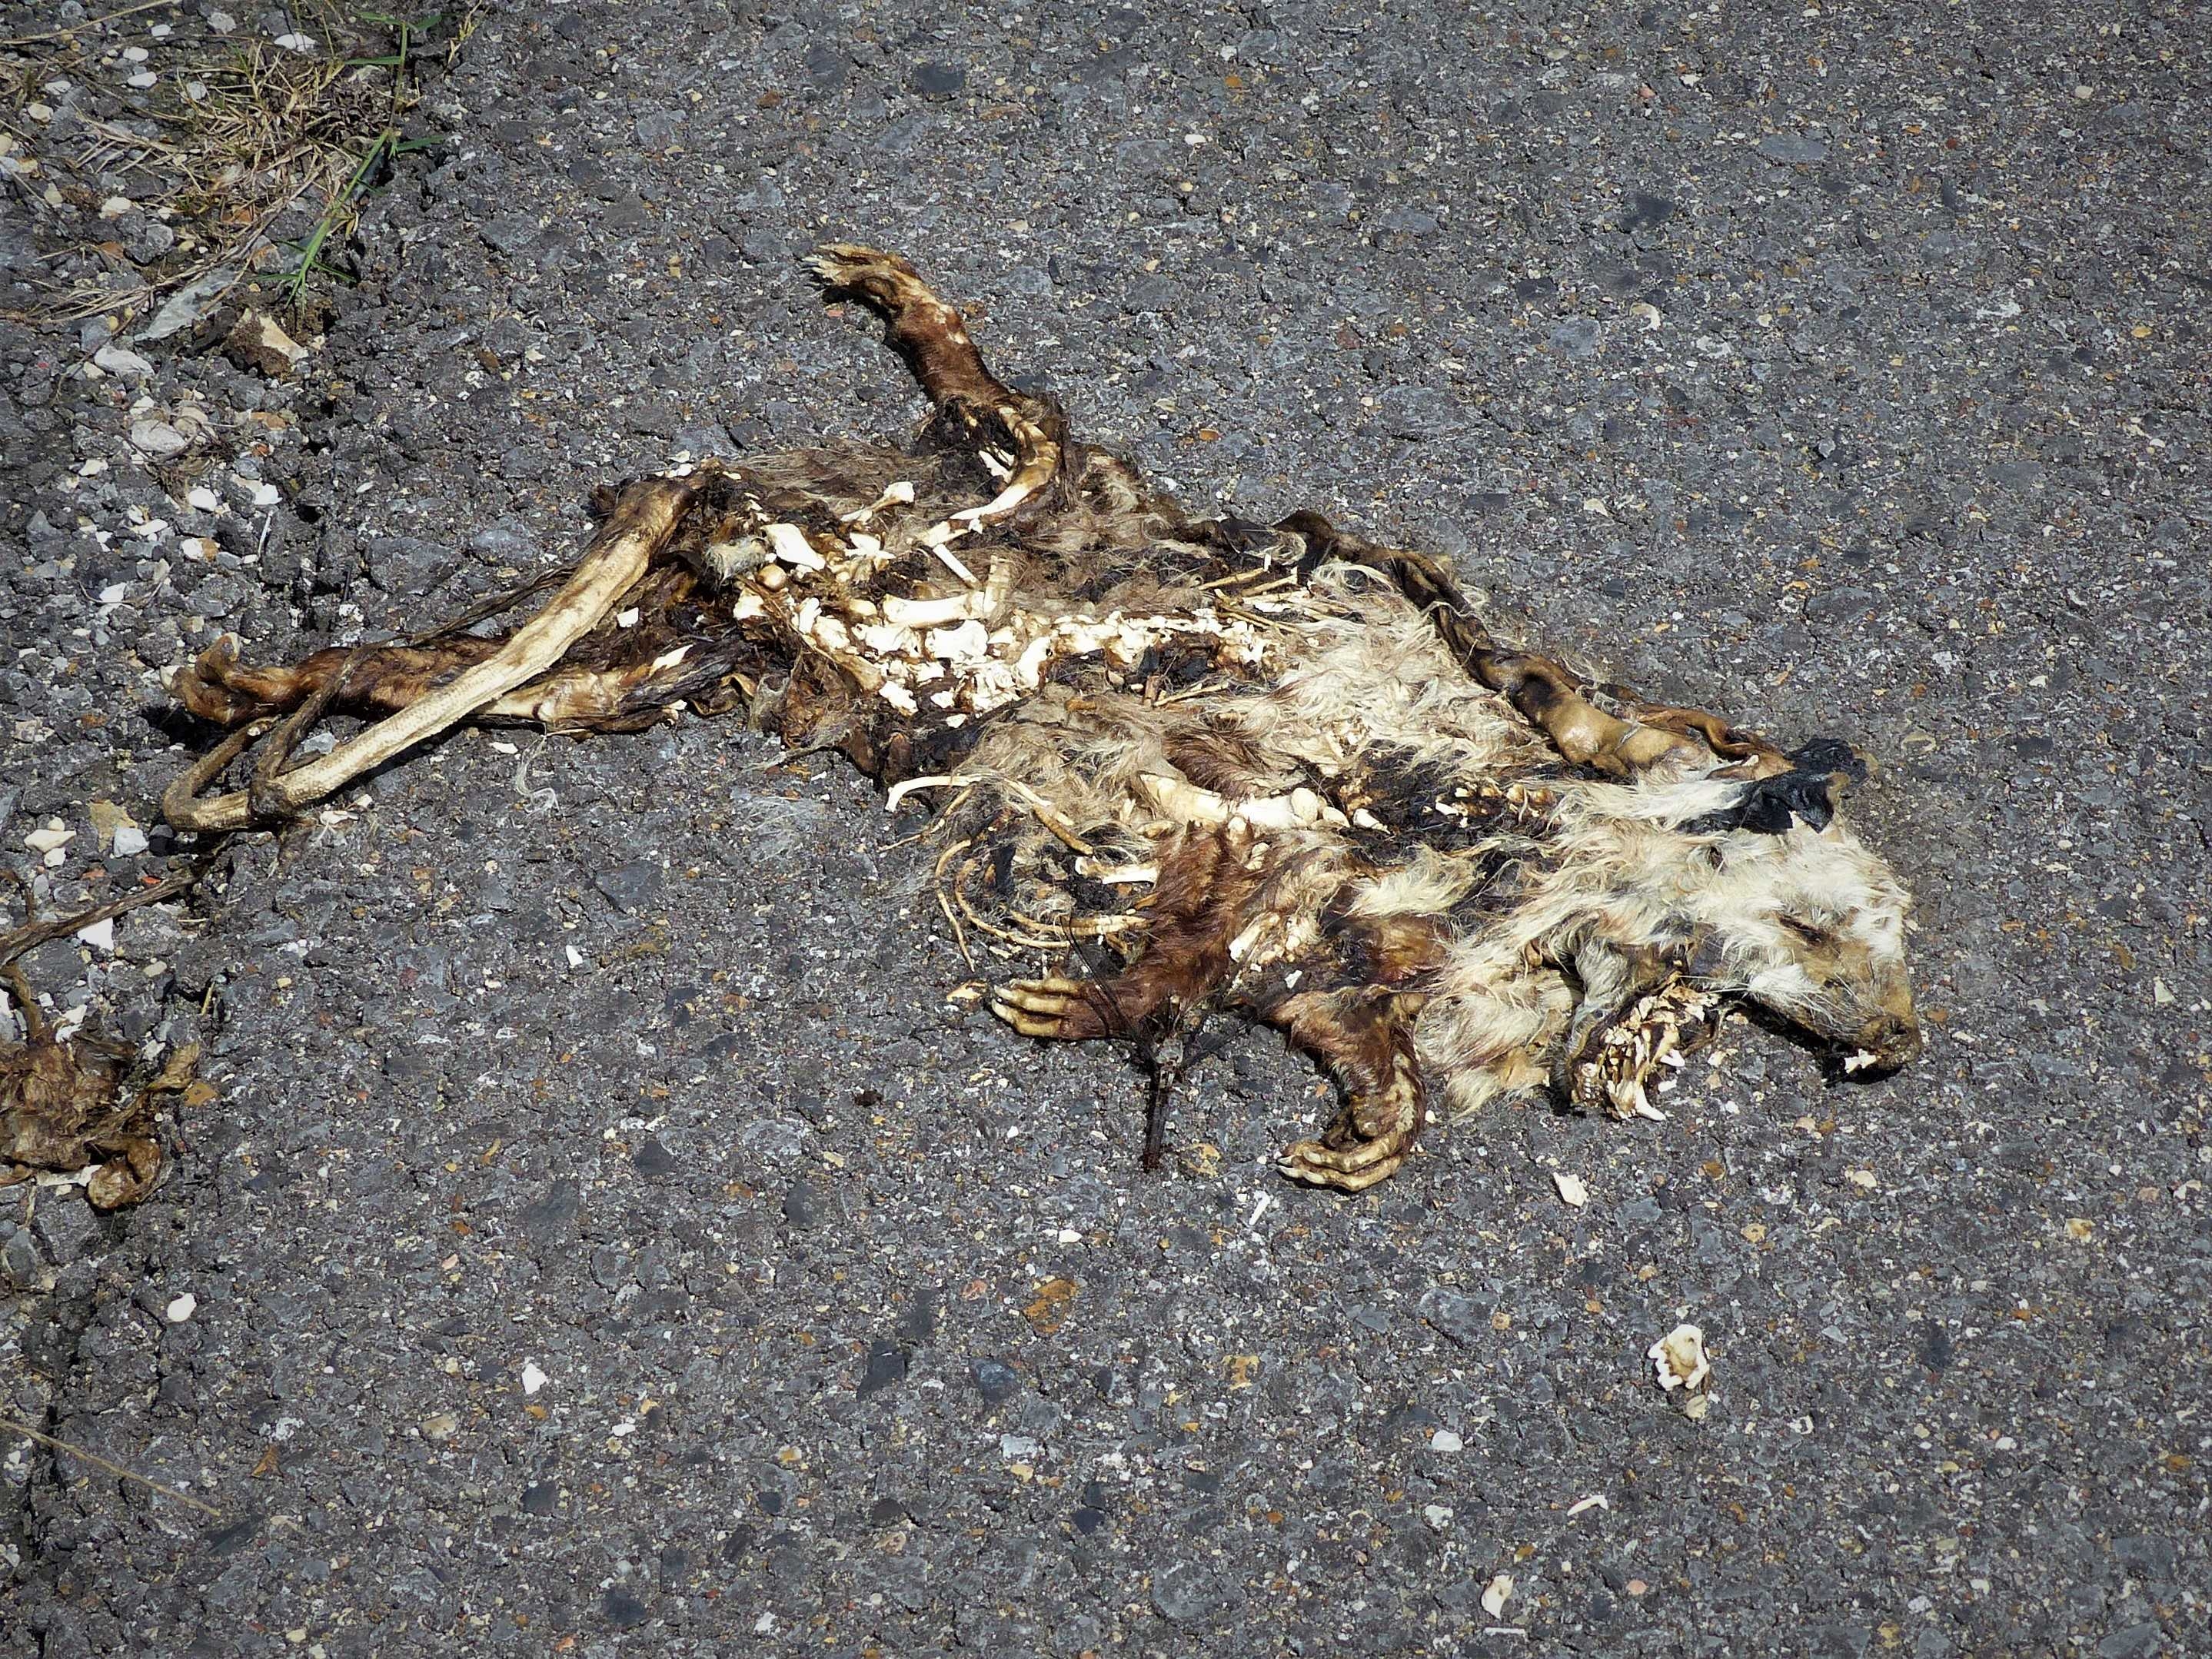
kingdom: Animalia
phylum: Chordata
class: Mammalia
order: Didelphimorphia
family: Didelphidae
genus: Didelphis
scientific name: Didelphis virginiana
